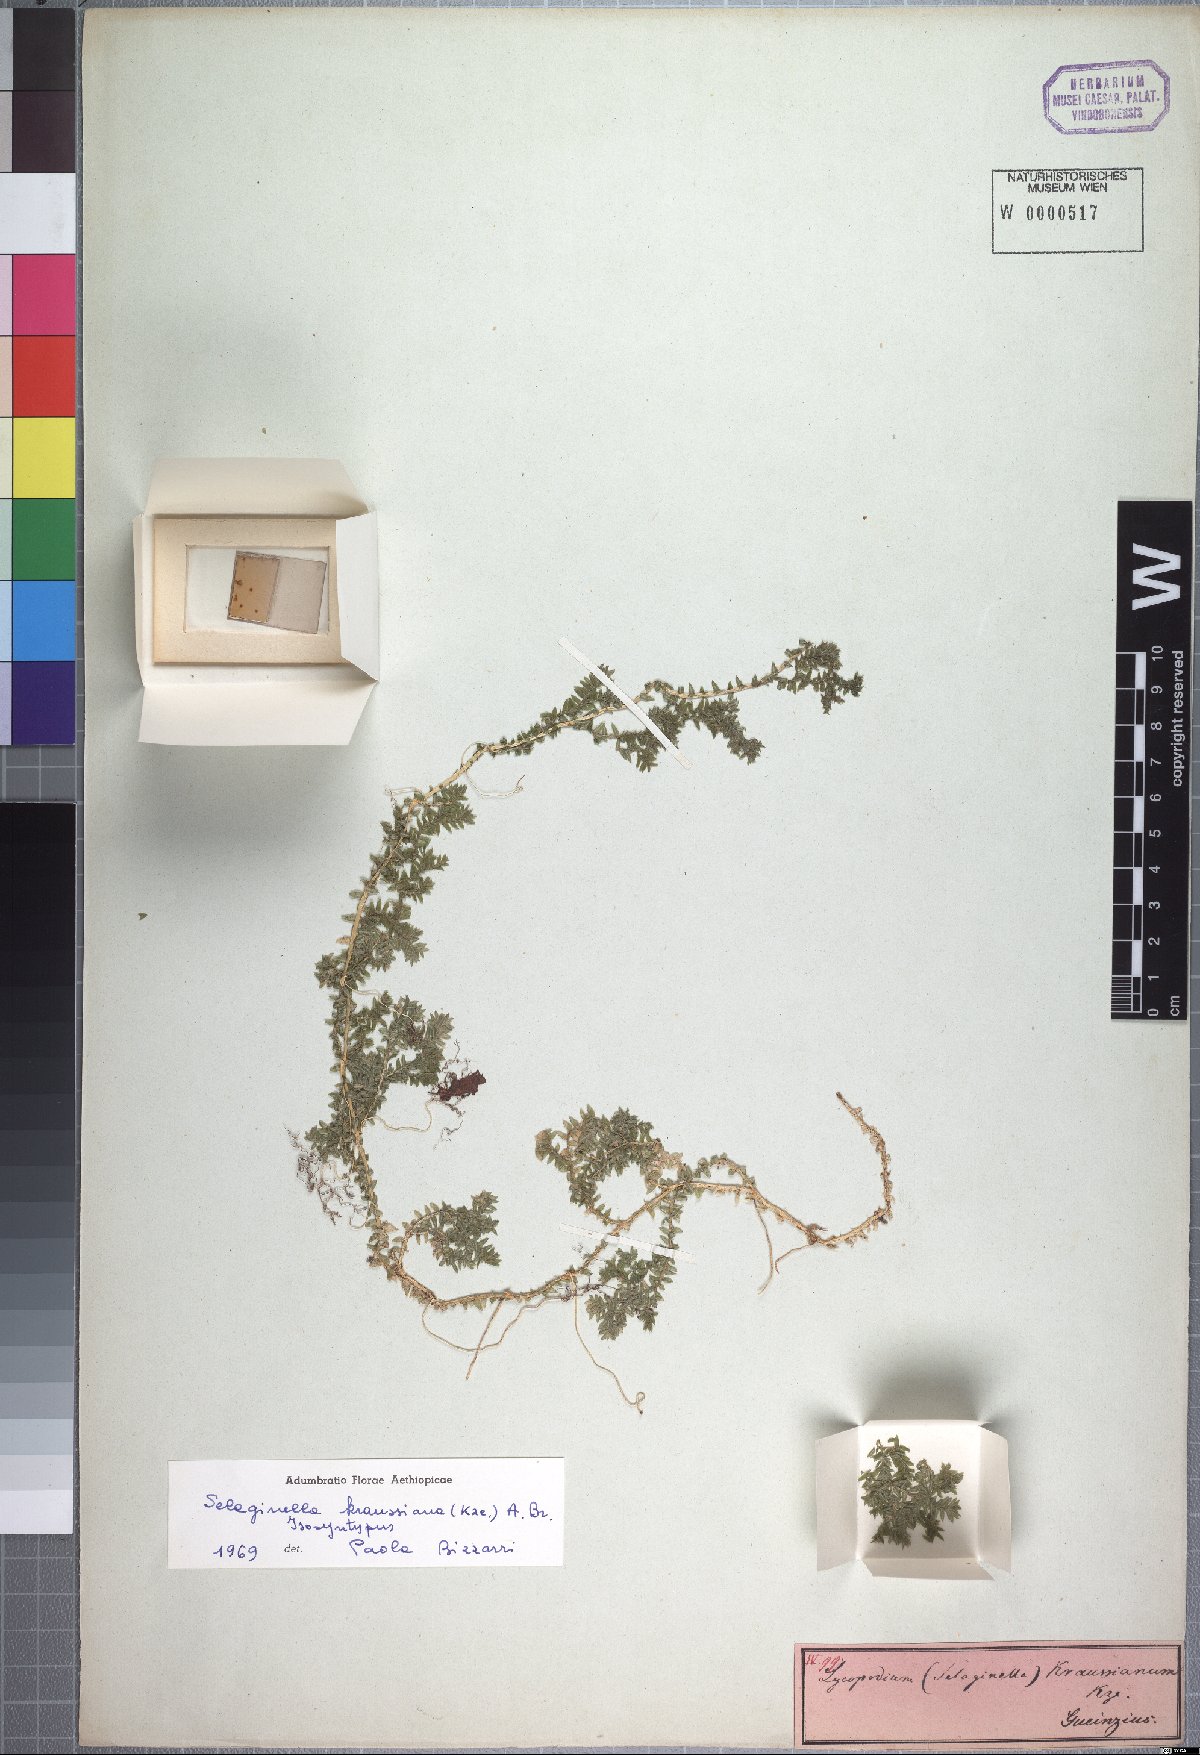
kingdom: Plantae
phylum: Tracheophyta
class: Lycopodiopsida
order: Selaginellales
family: Selaginellaceae
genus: Selaginella
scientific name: Selaginella kraussiana
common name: Krauss' spikemoss
